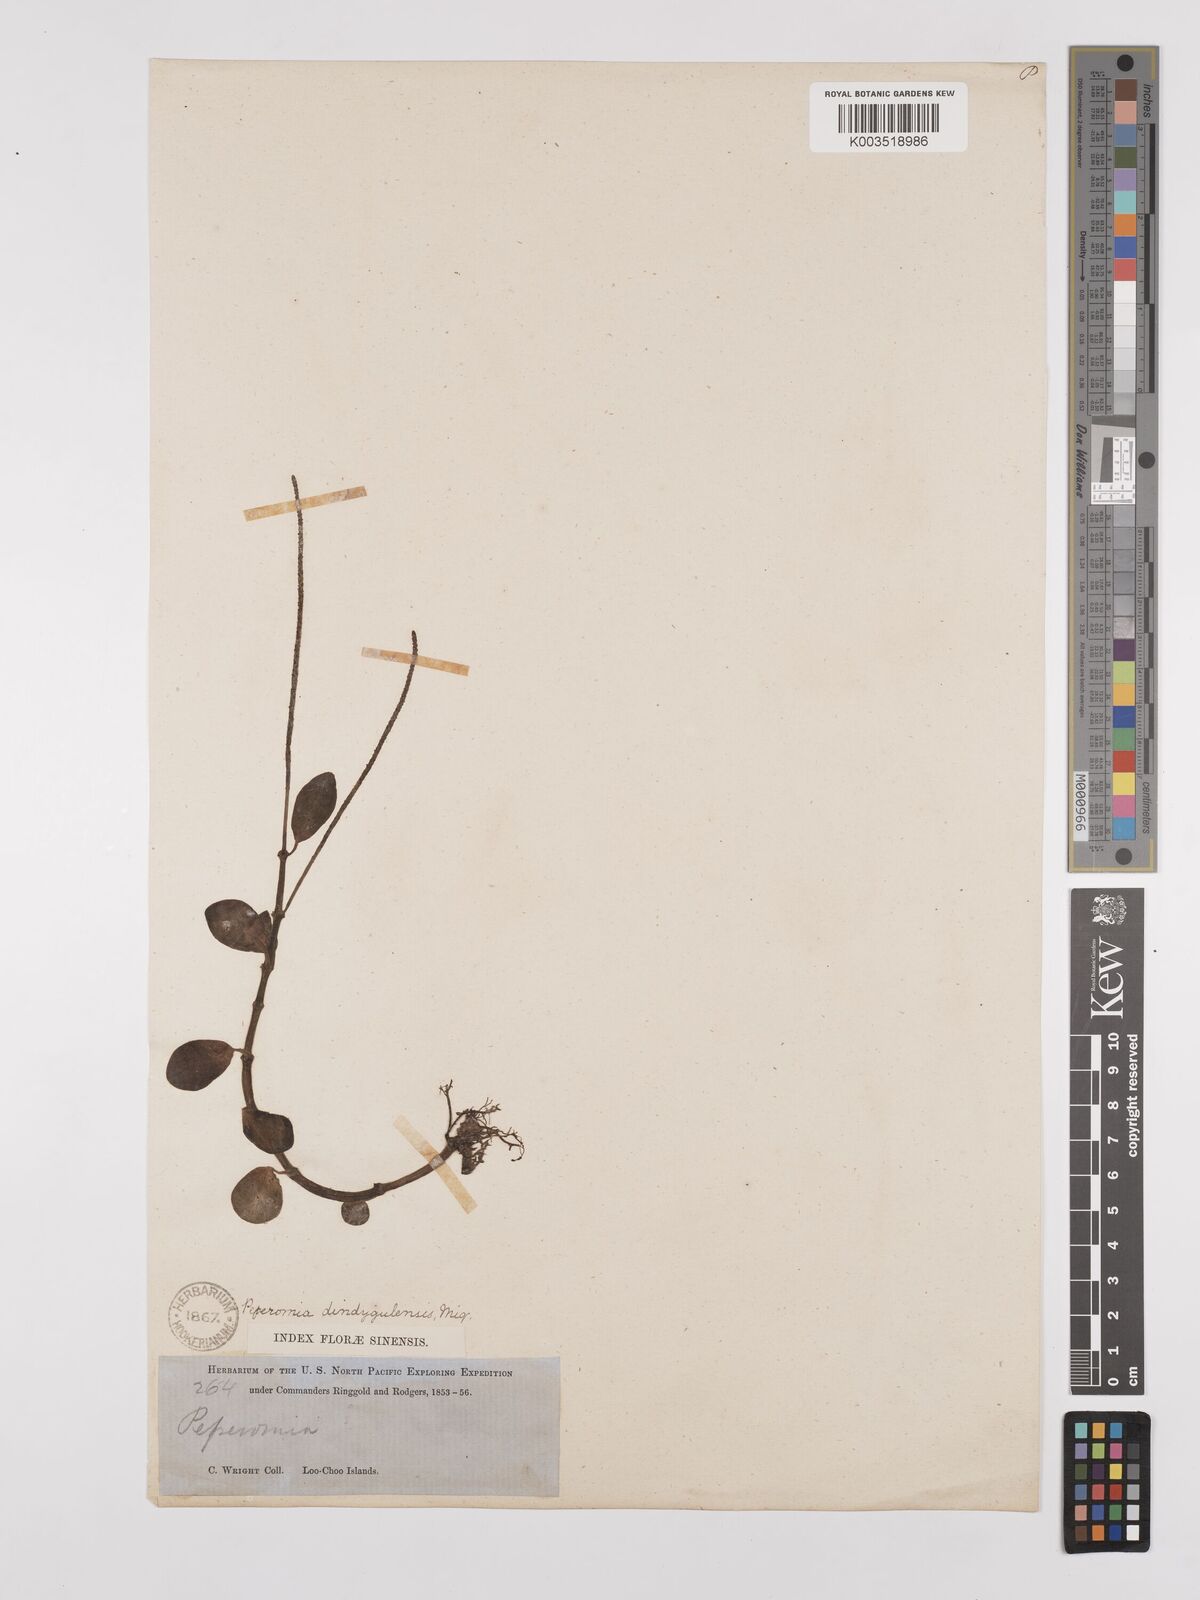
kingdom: Plantae
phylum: Tracheophyta
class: Magnoliopsida
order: Piperales
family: Piperaceae
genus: Peperomia
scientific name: Peperomia leptostachya
